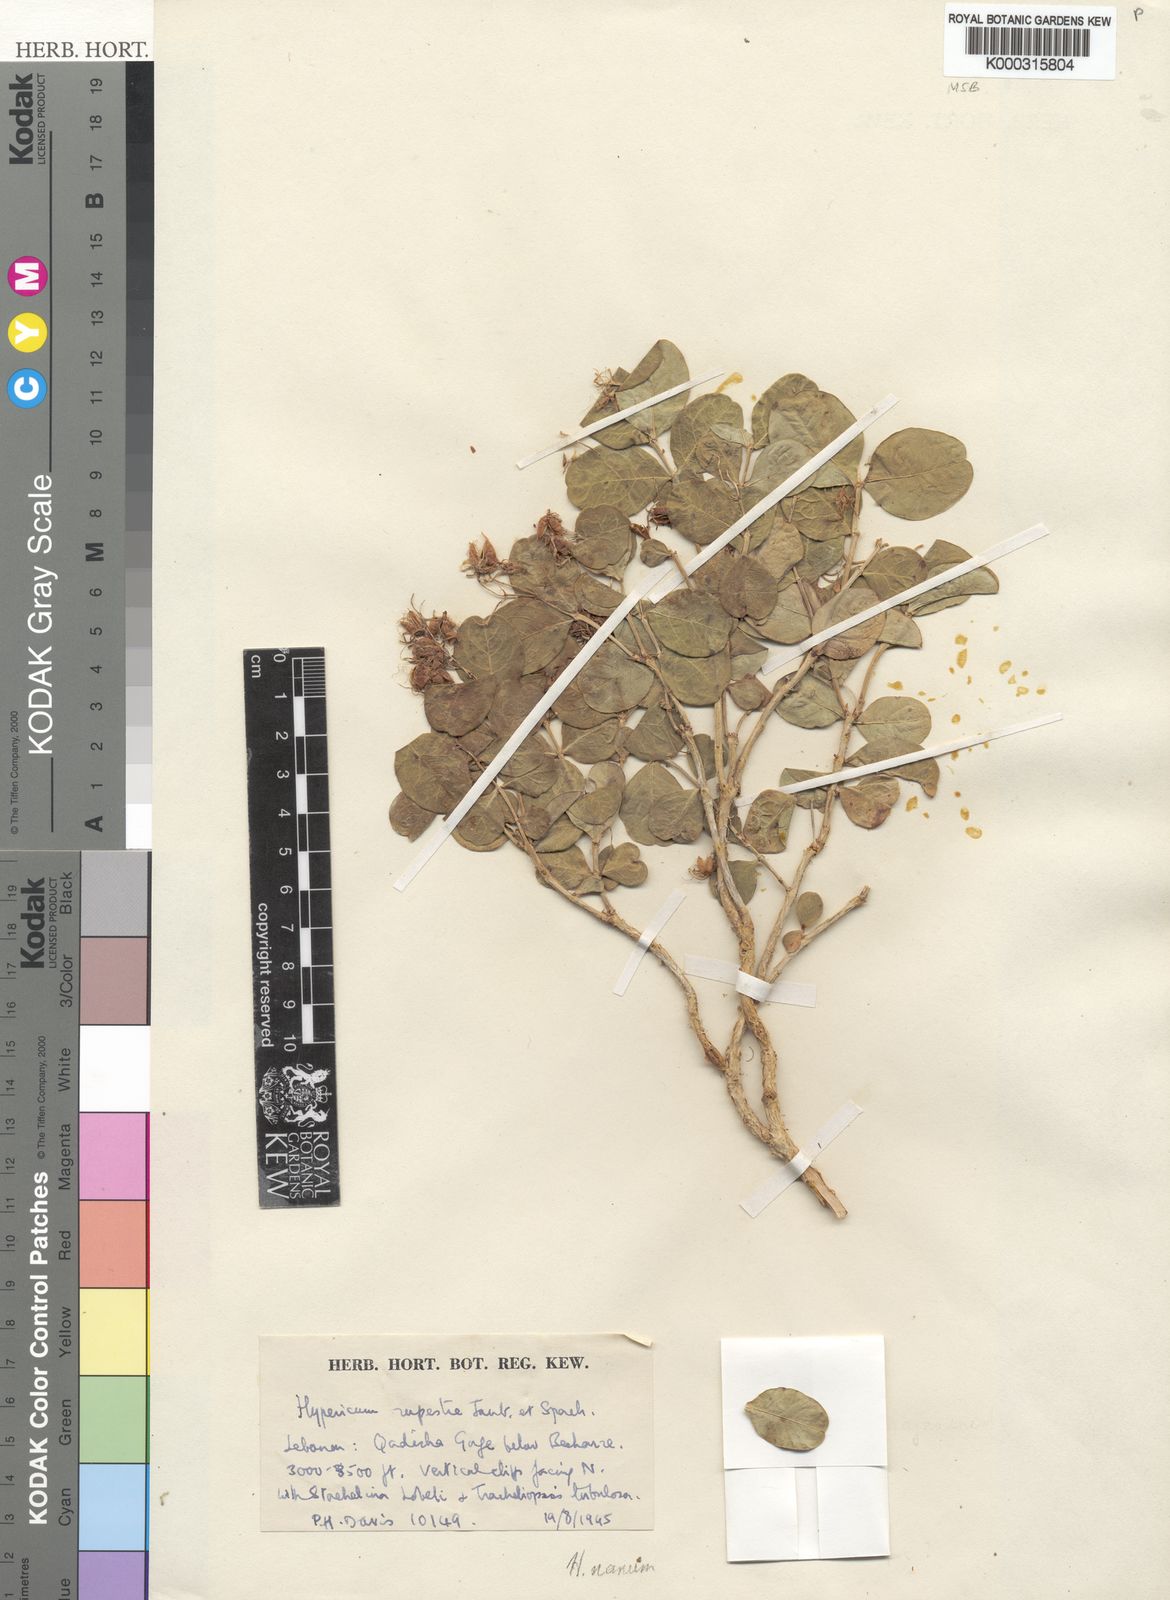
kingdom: Plantae
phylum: Tracheophyta
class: Magnoliopsida
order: Malpighiales
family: Hypericaceae
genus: Hypericum
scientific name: Hypericum nanum
